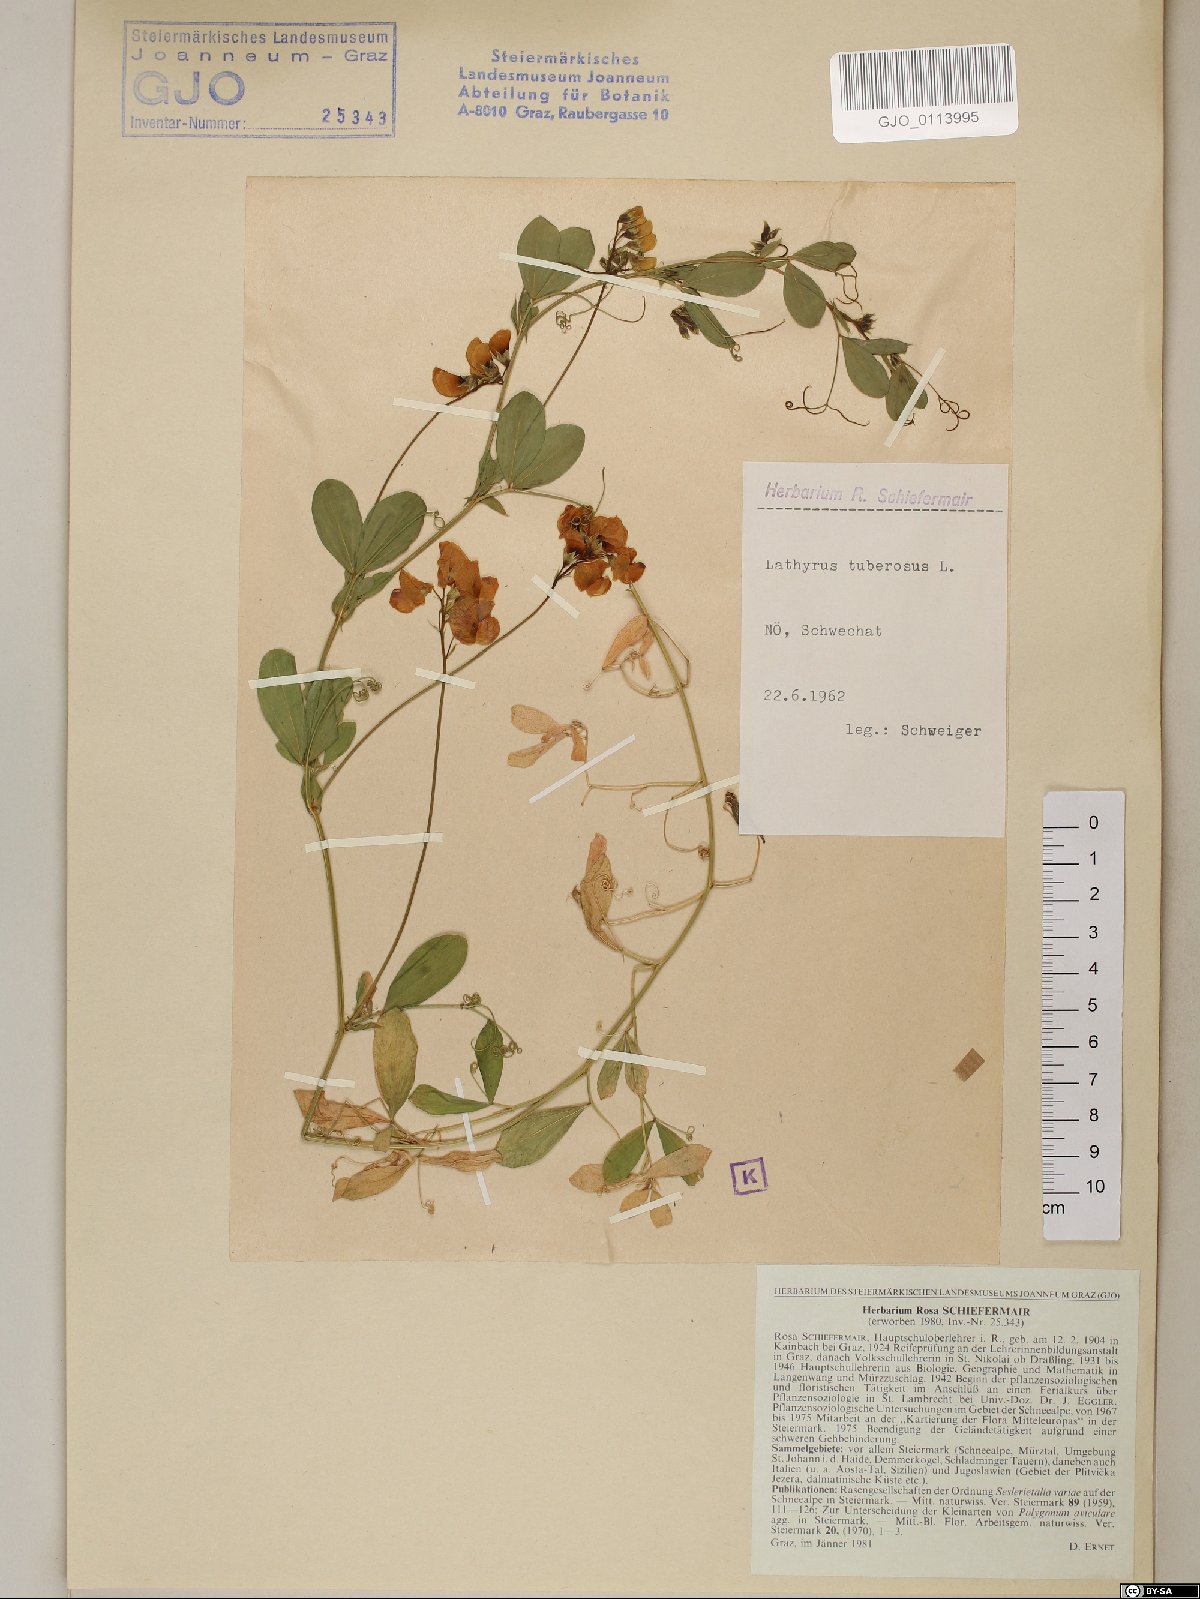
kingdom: Plantae
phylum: Tracheophyta
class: Magnoliopsida
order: Fabales
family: Fabaceae
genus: Lathyrus
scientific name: Lathyrus tuberosus
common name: Tuberous pea
